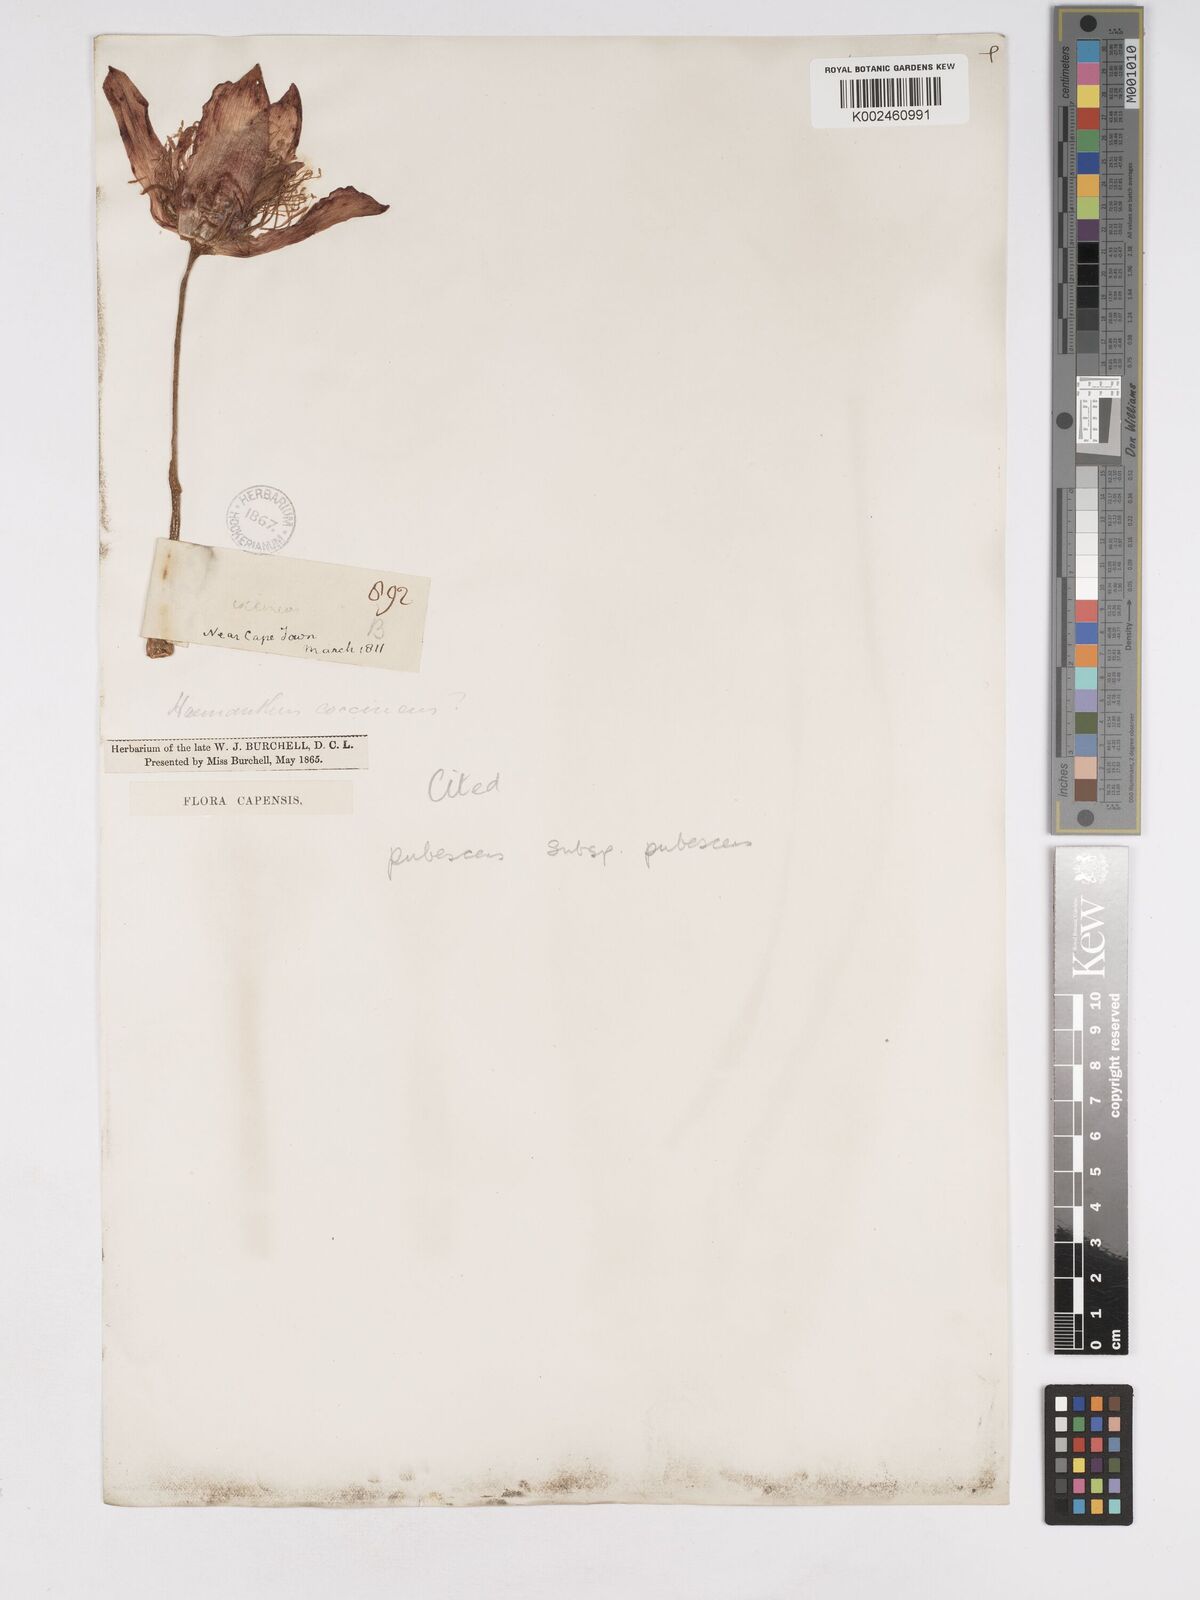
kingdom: Plantae
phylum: Tracheophyta
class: Liliopsida
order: Asparagales
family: Amaryllidaceae
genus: Haemanthus
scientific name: Haemanthus pubescens
